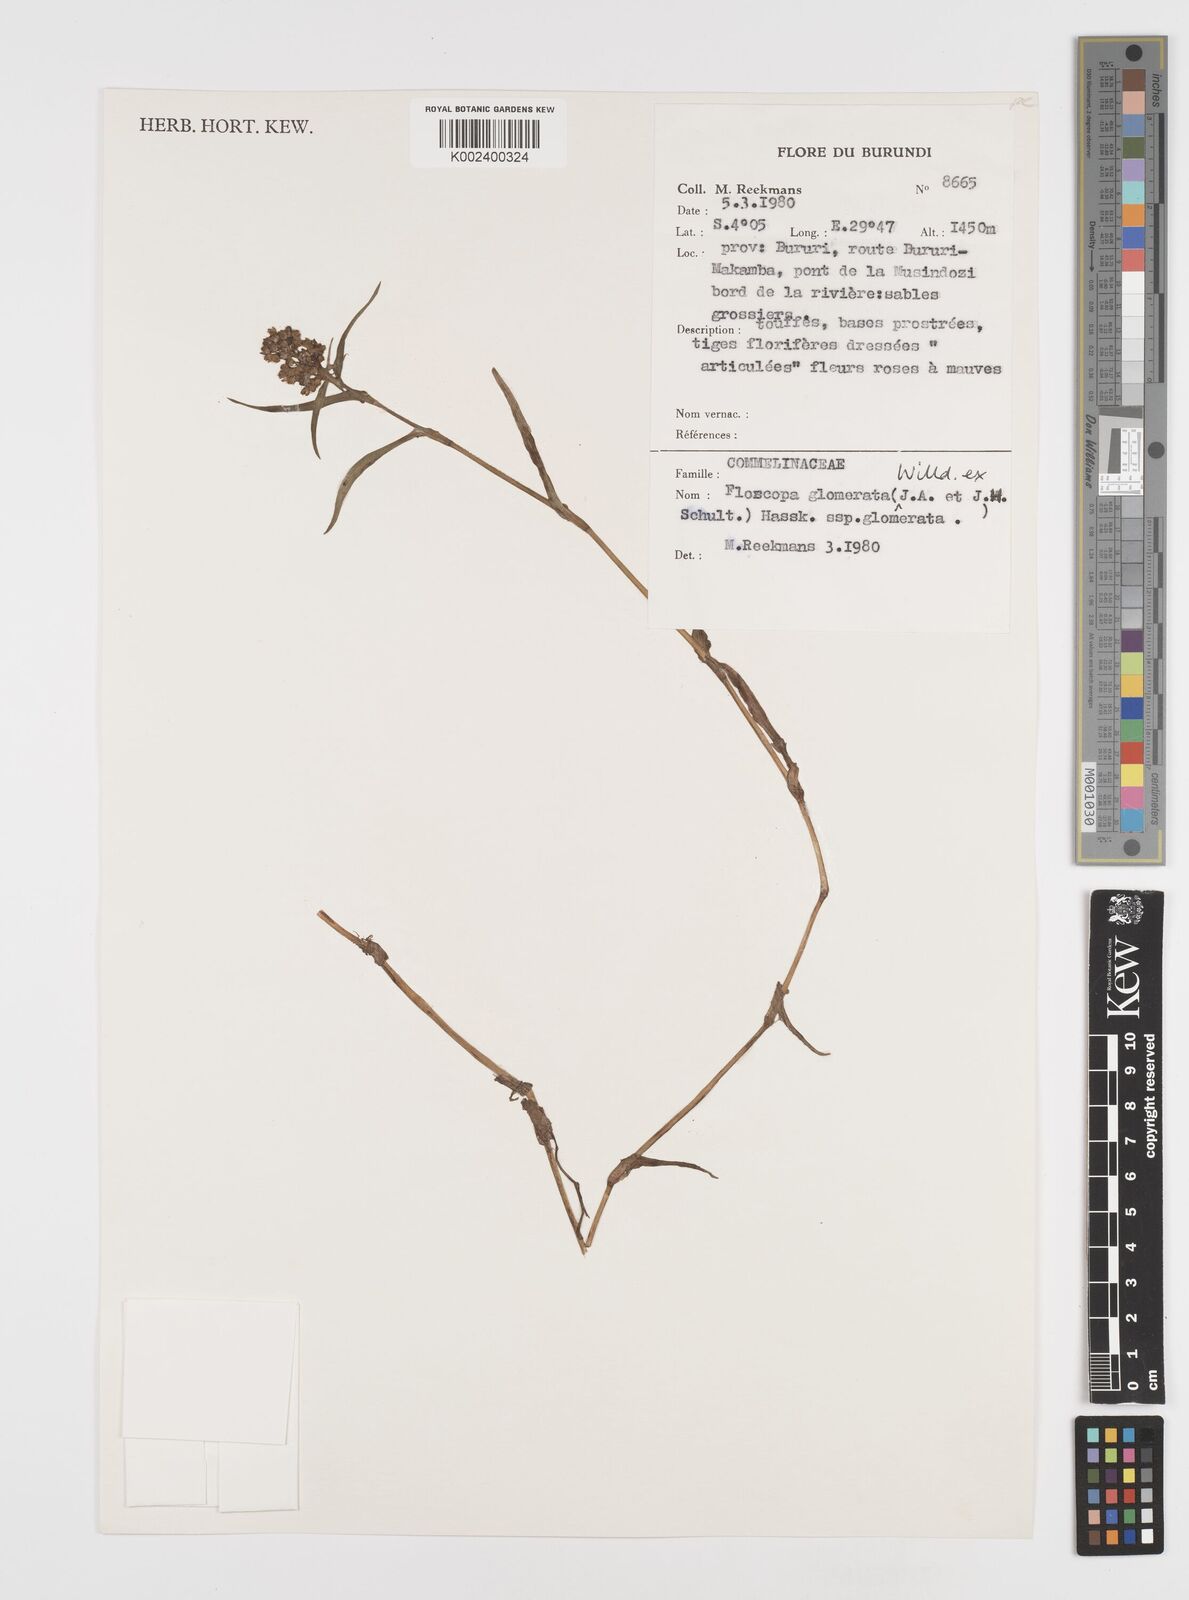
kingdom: Plantae
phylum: Tracheophyta
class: Liliopsida
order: Commelinales
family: Commelinaceae
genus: Floscopa
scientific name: Floscopa glomerata
